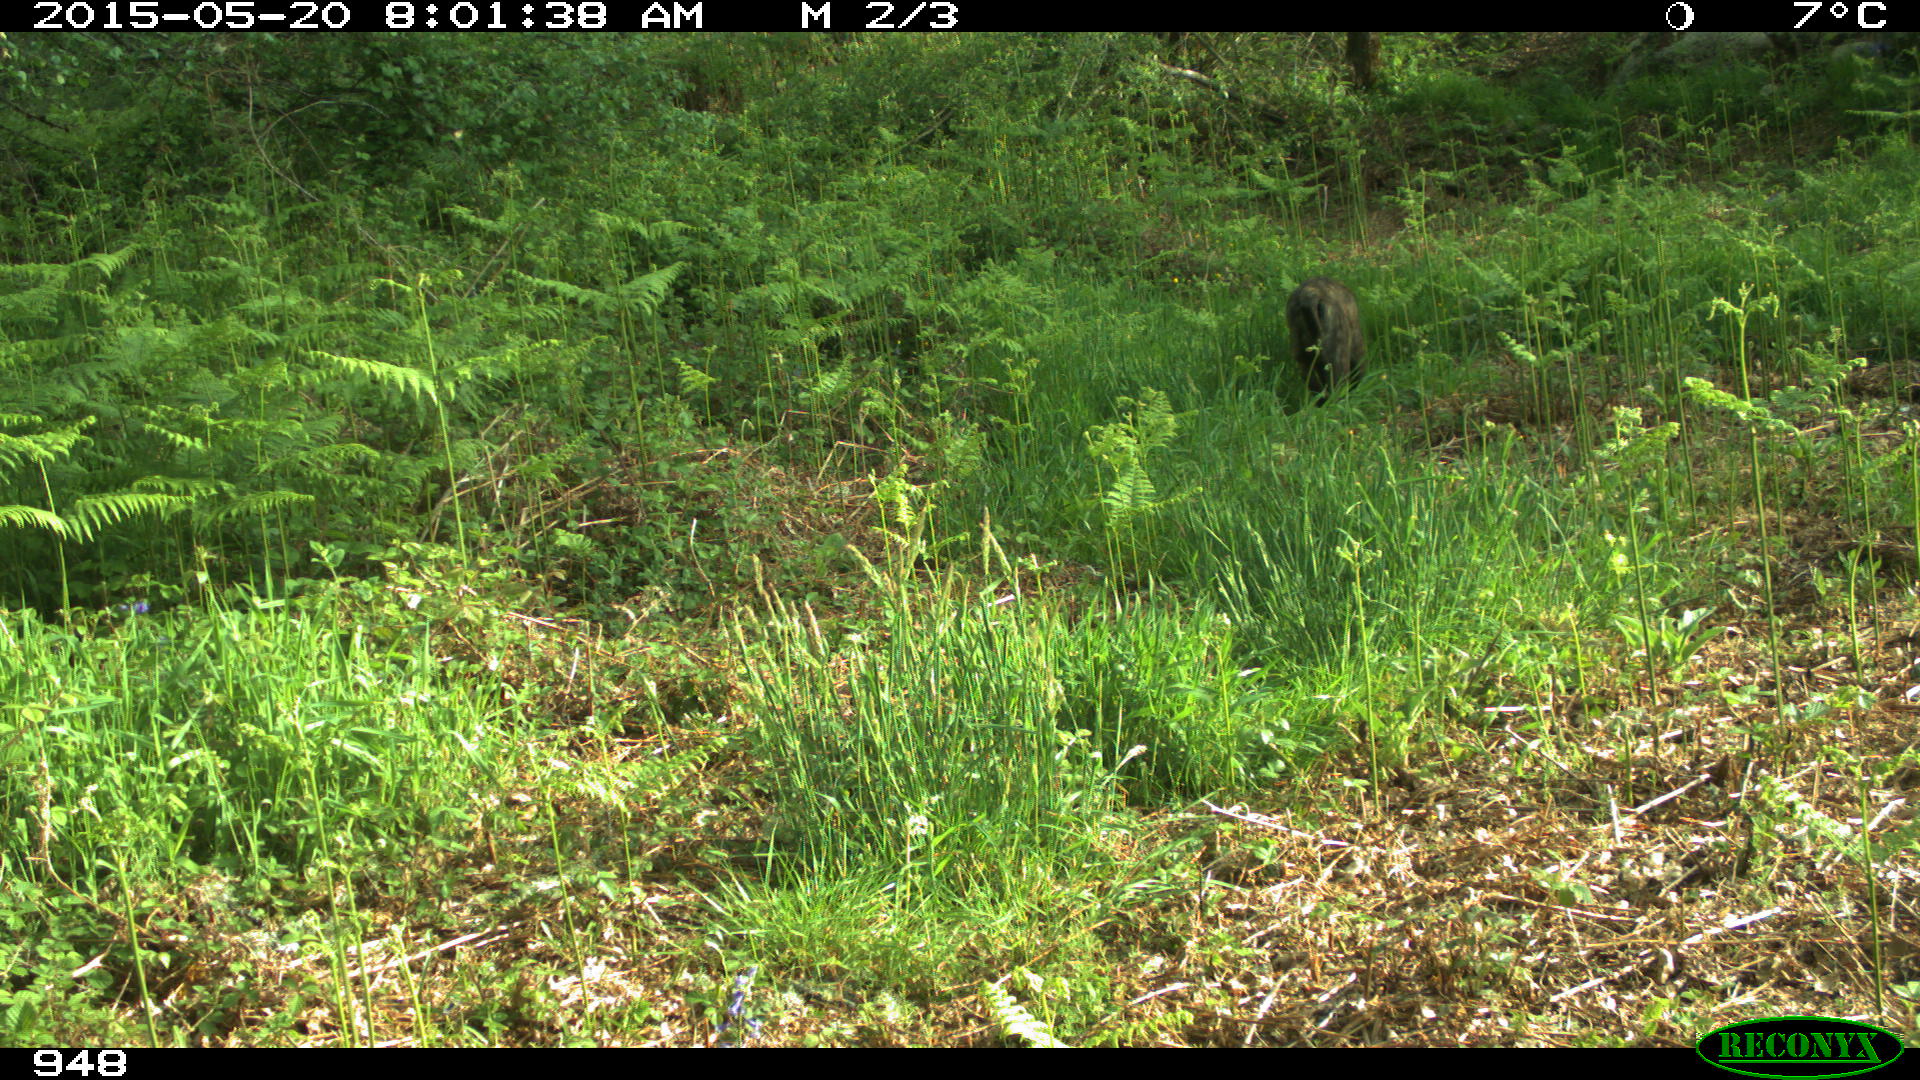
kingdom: Animalia
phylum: Chordata
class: Mammalia
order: Carnivora
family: Canidae
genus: Canis
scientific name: Canis lupus
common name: Gray wolf
